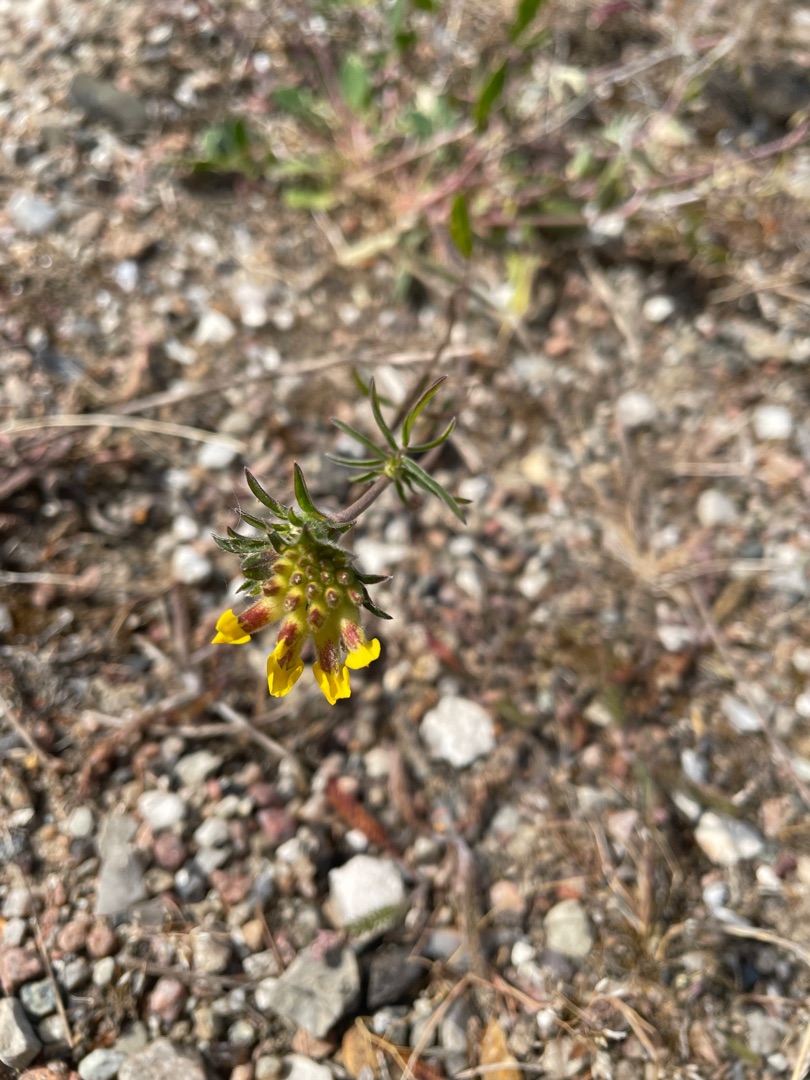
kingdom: Plantae
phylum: Tracheophyta
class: Magnoliopsida
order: Fabales
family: Fabaceae
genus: Anthyllis
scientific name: Anthyllis vulneraria
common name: Rundbælg
